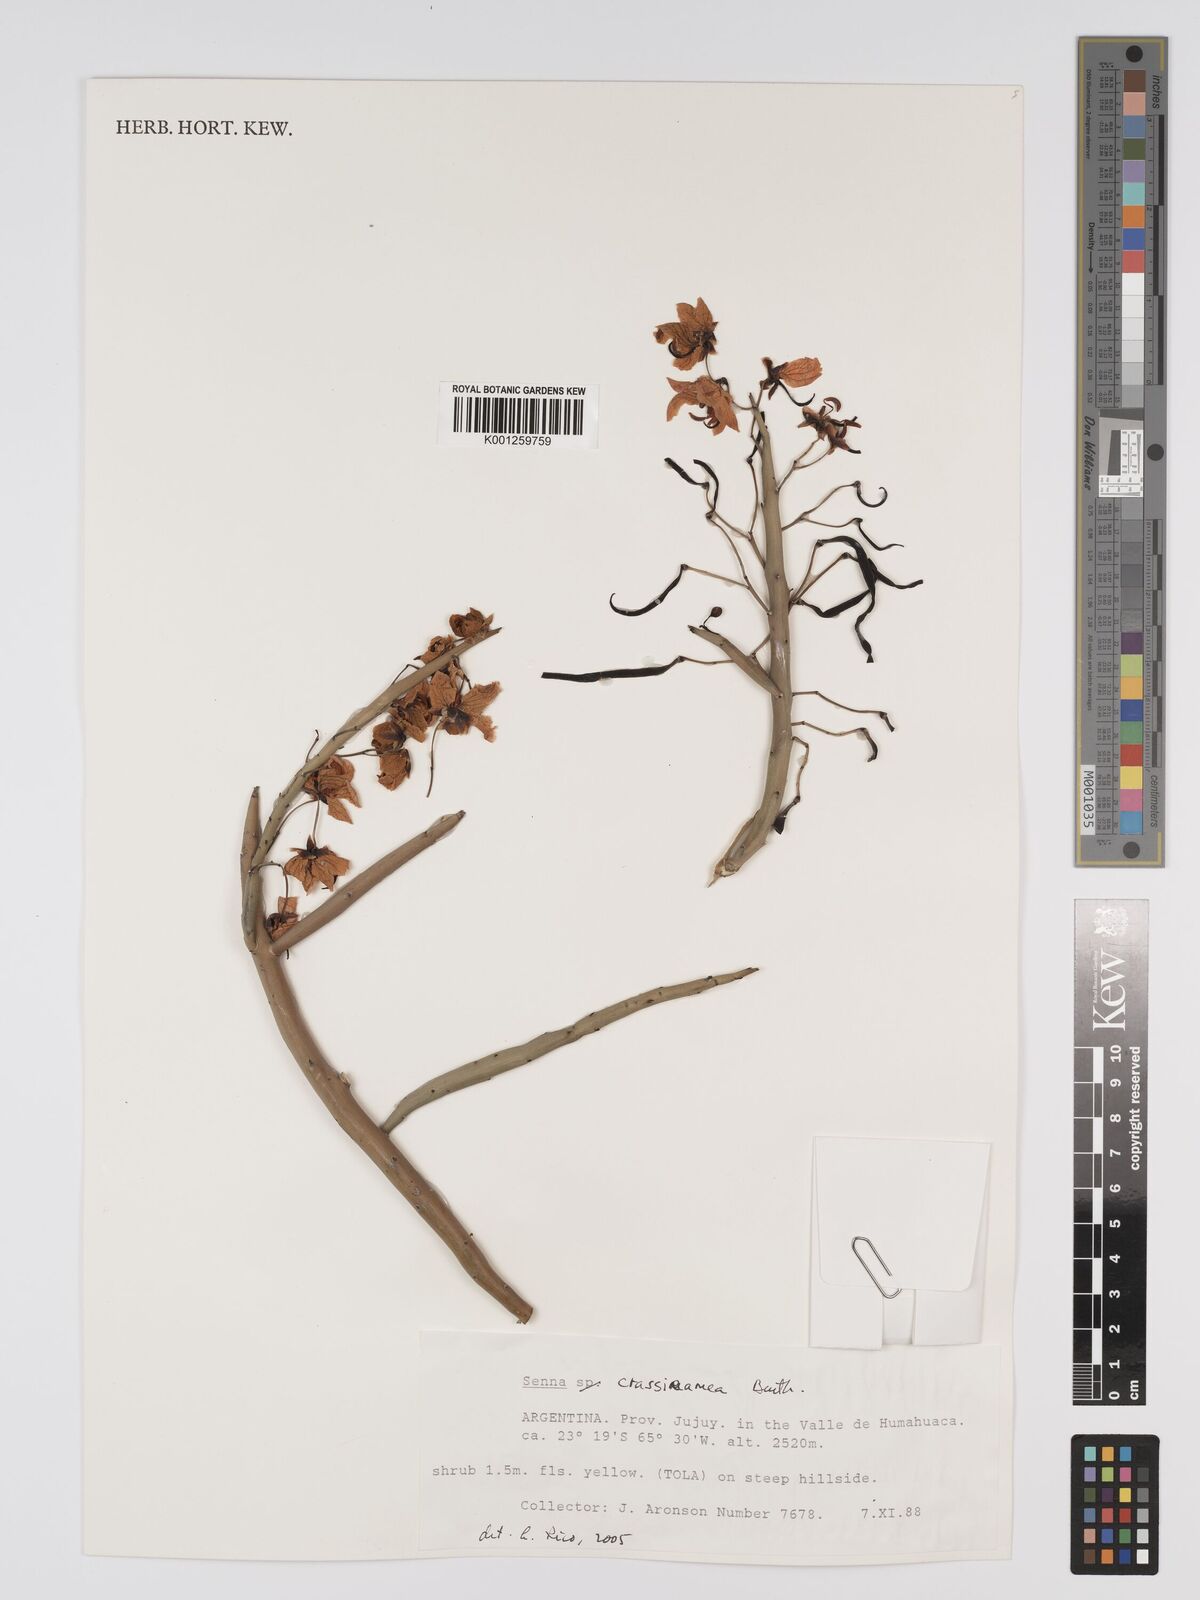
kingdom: Plantae
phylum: Tracheophyta
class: Magnoliopsida
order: Fabales
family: Fabaceae
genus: Senna
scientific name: Senna crassiramea
